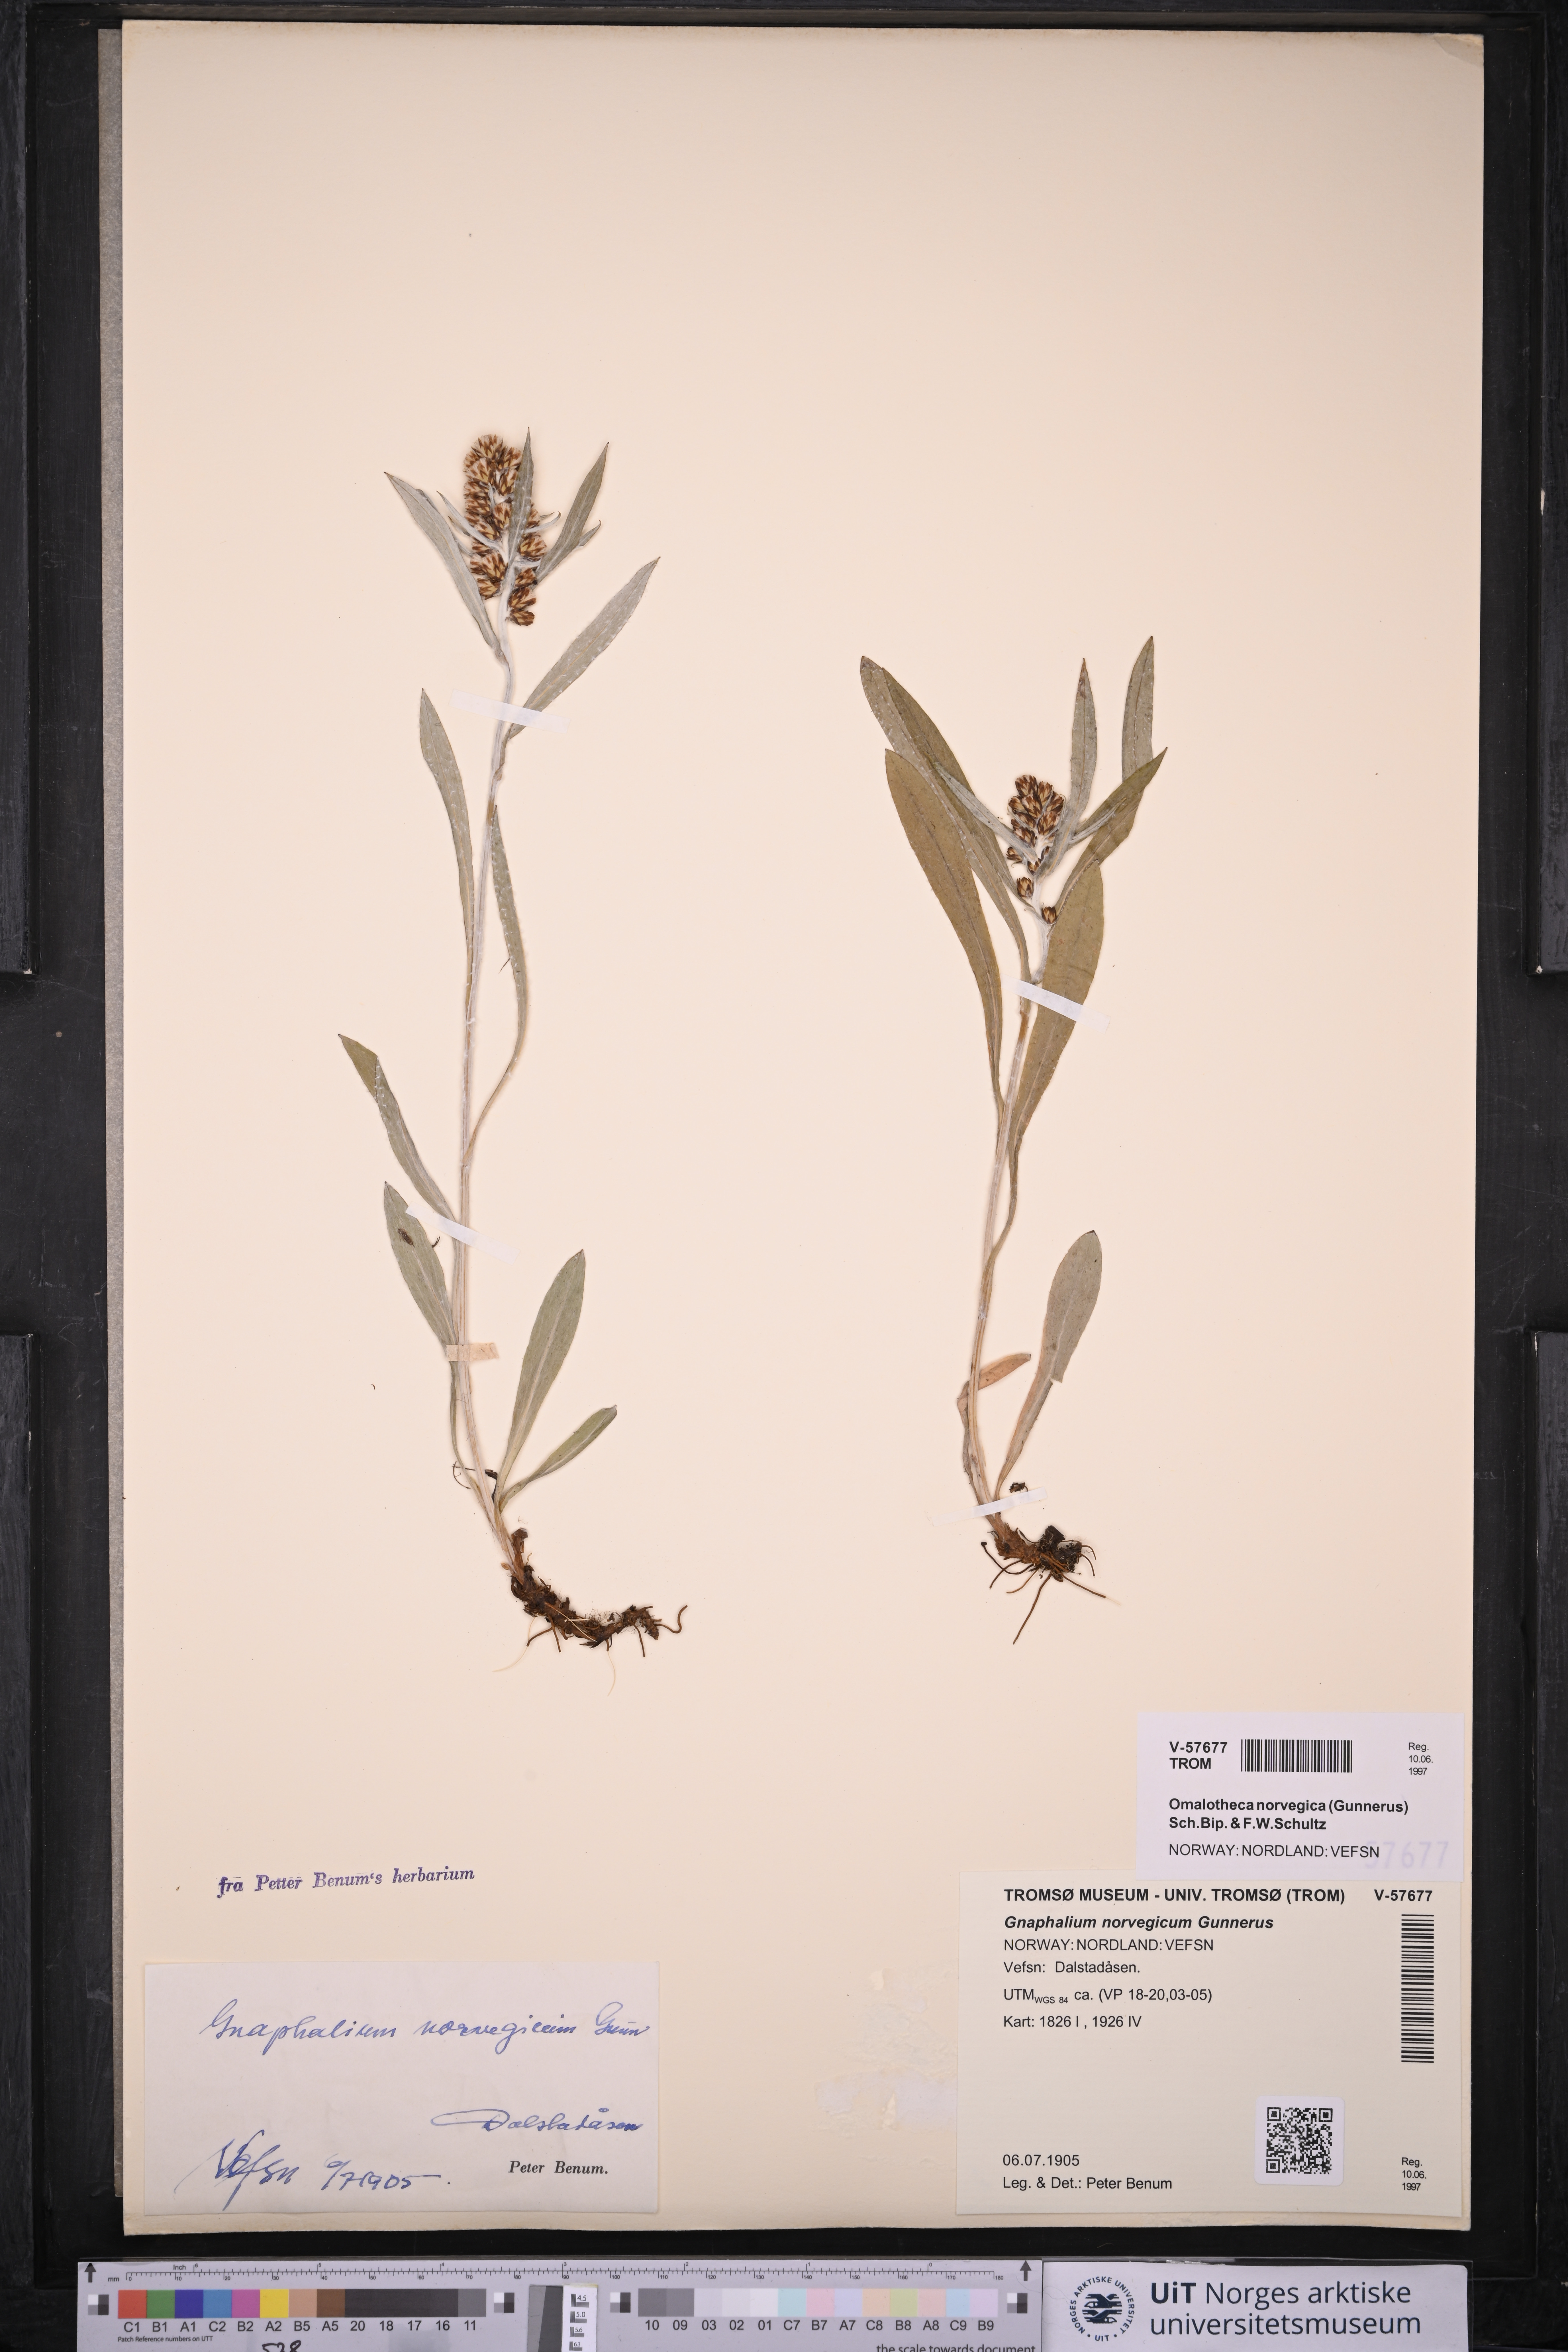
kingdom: Plantae
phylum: Tracheophyta
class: Magnoliopsida
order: Asterales
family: Asteraceae
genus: Omalotheca
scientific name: Omalotheca norvegica
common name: Norwegian arctic-cudweed
